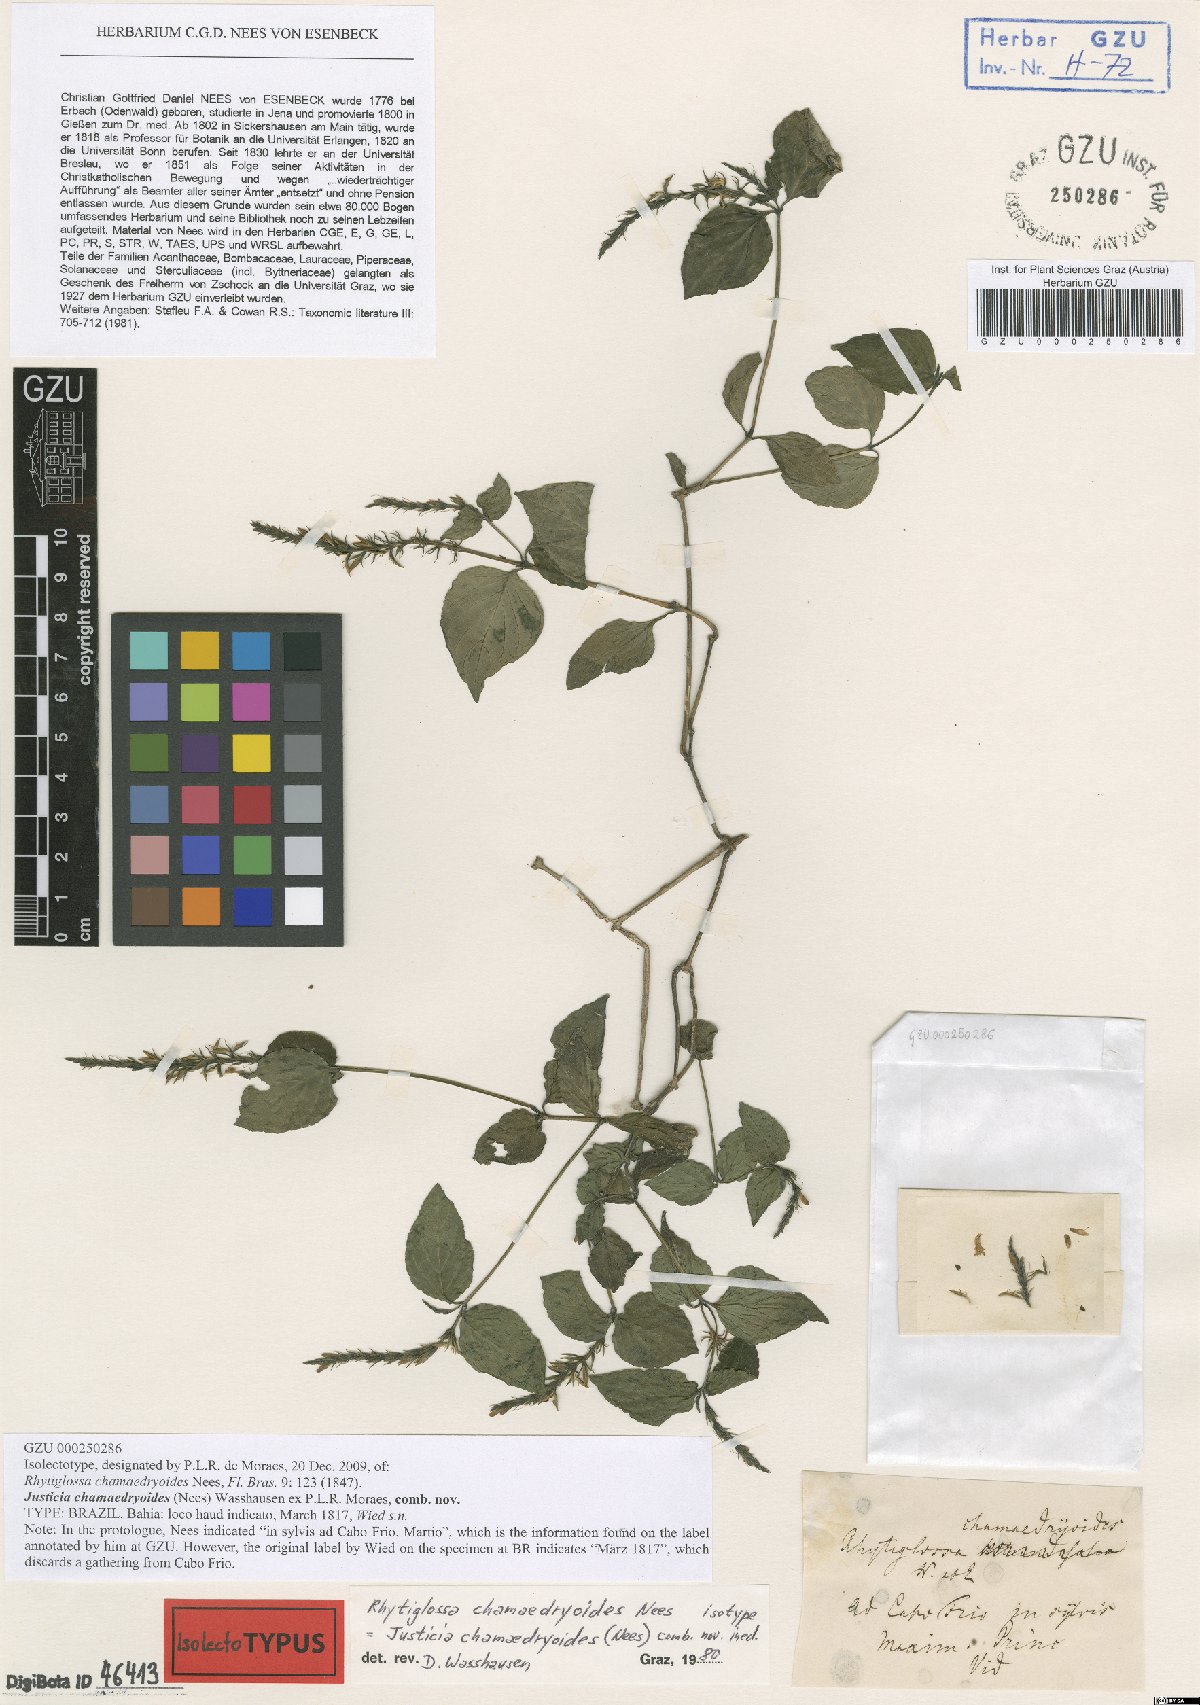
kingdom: Plantae
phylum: Tracheophyta
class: Magnoliopsida
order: Lamiales
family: Acanthaceae
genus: Justicia
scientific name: Justicia chamaedryoides
